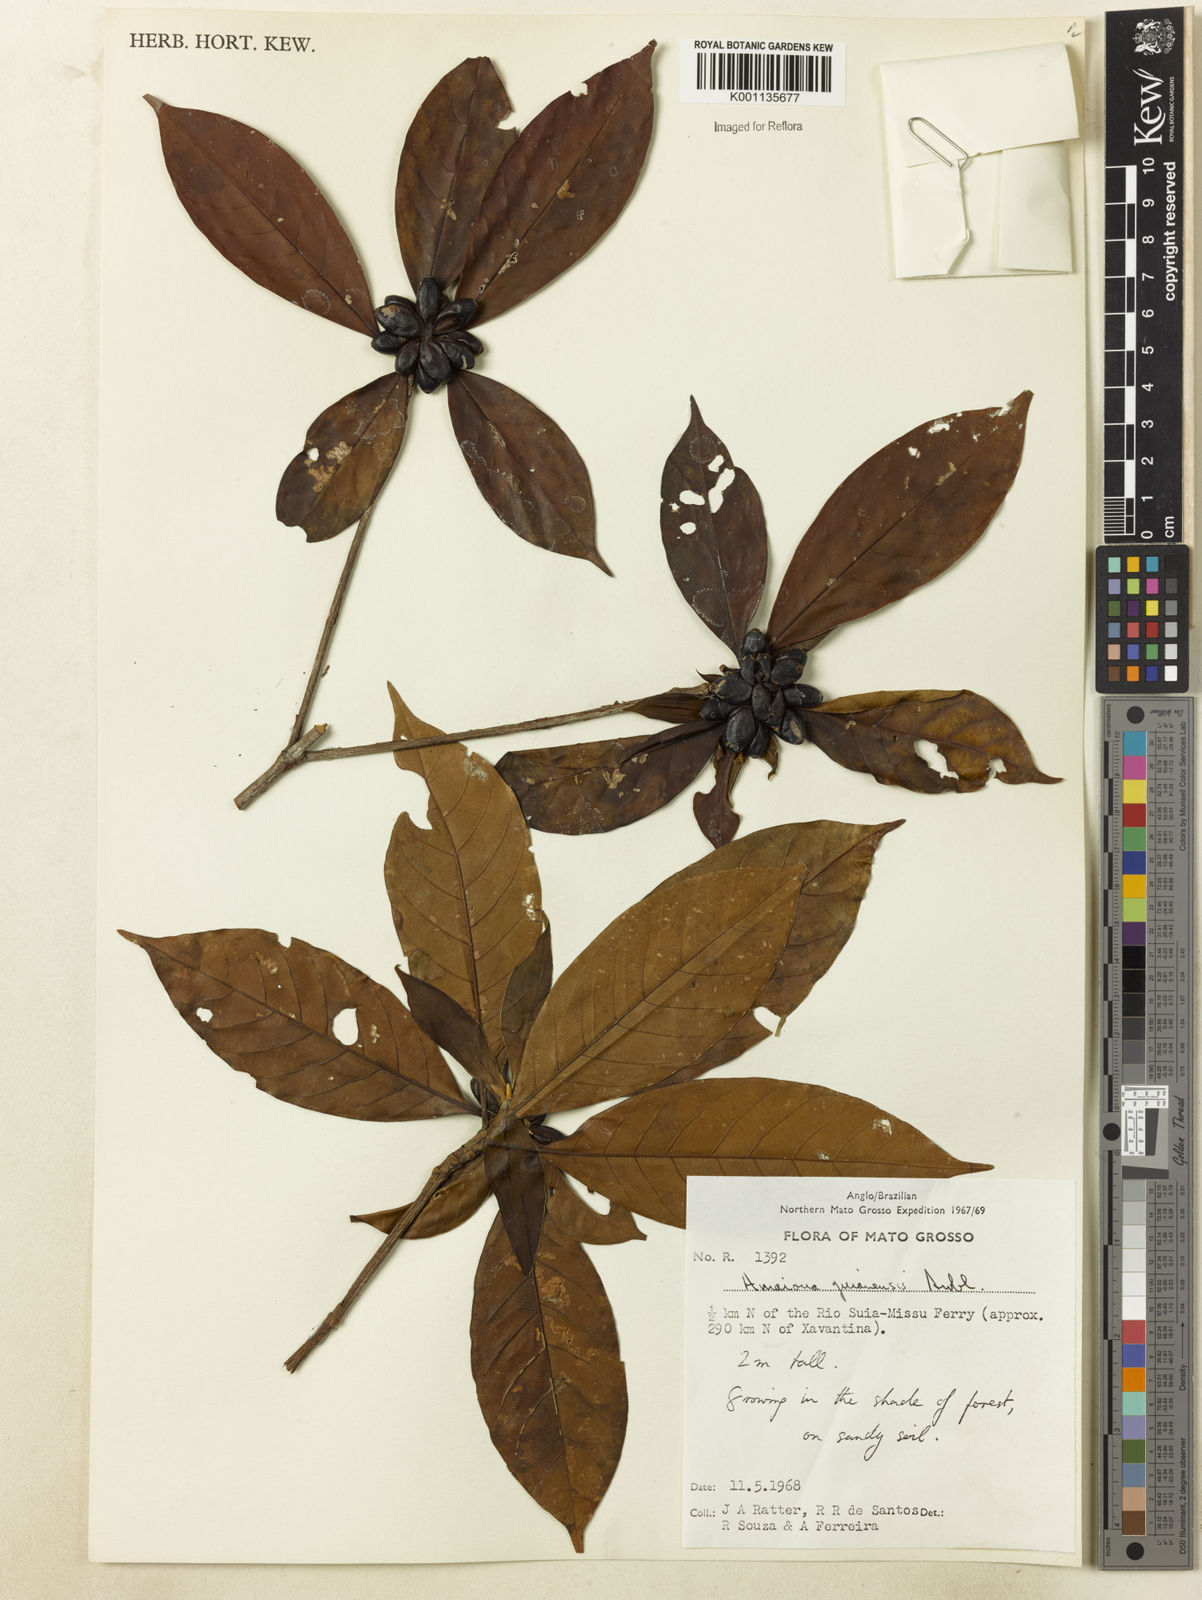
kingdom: Plantae
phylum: Tracheophyta
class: Magnoliopsida
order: Gentianales
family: Rubiaceae
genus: Amaioua
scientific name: Amaioua guianensis
